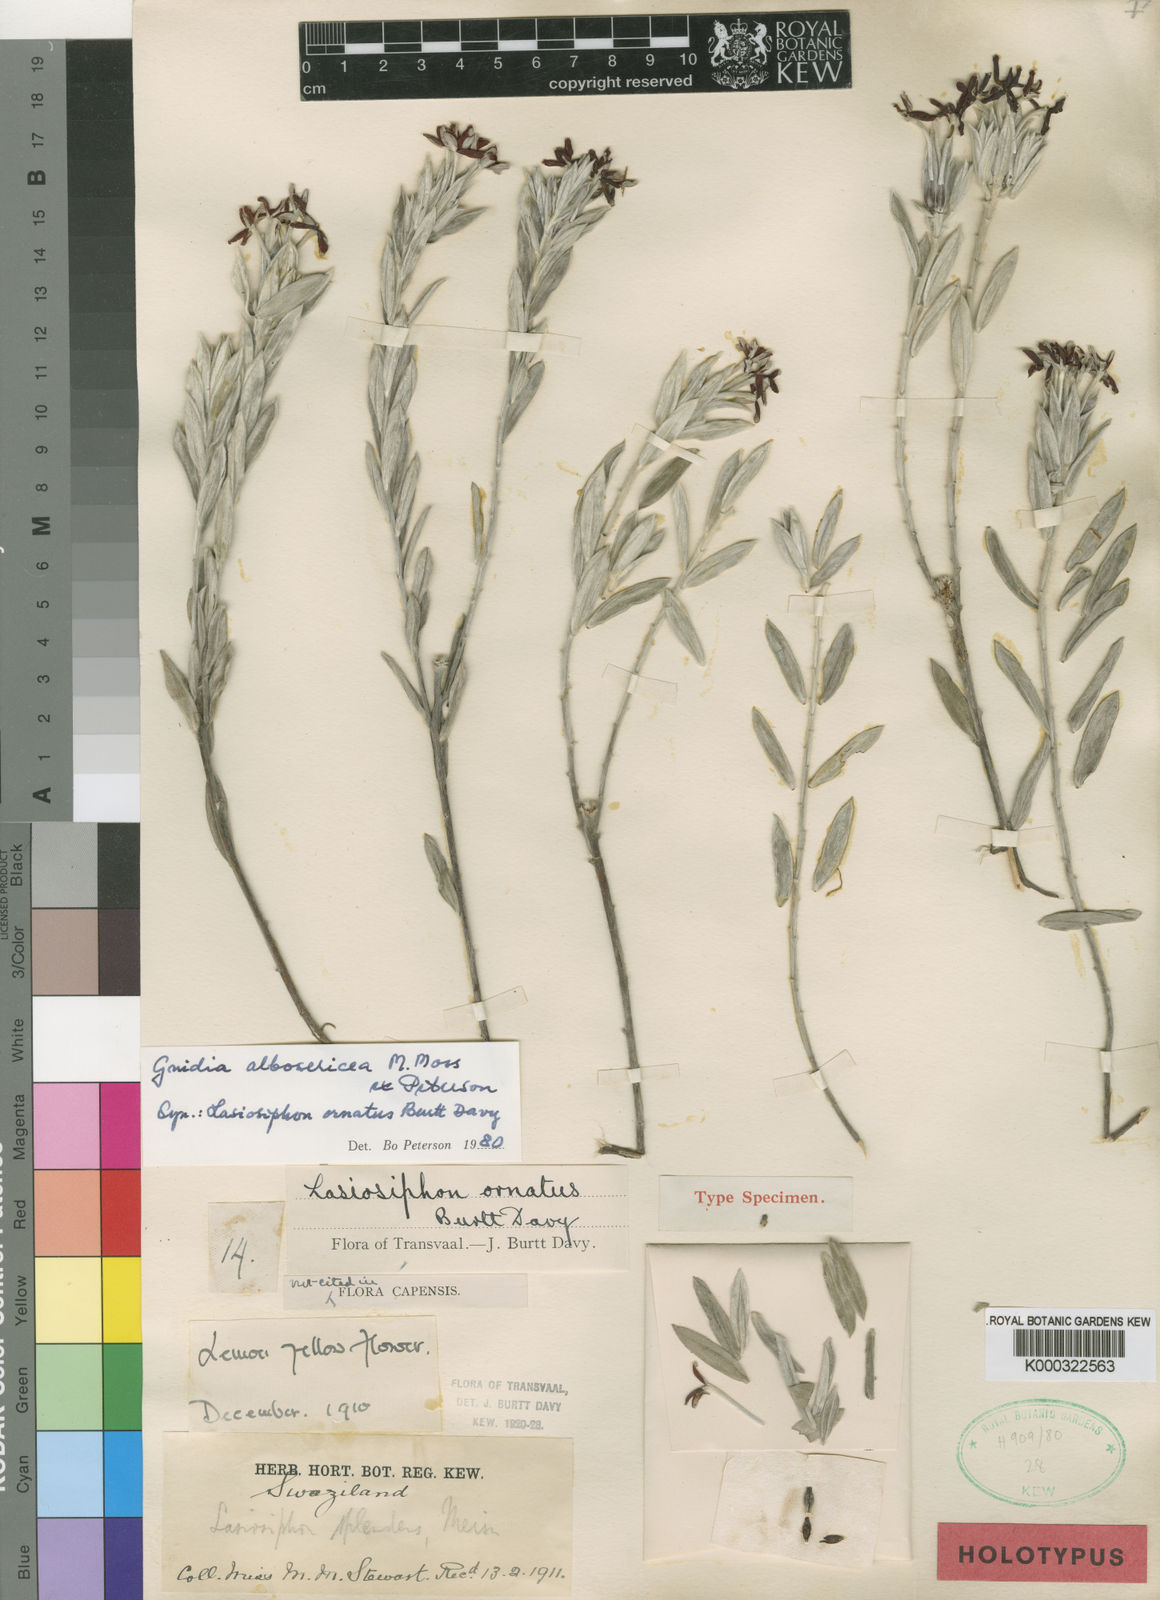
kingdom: Plantae
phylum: Tracheophyta
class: Magnoliopsida
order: Malvales
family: Thymelaeaceae
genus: Gnidia
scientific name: Gnidia albosericea
